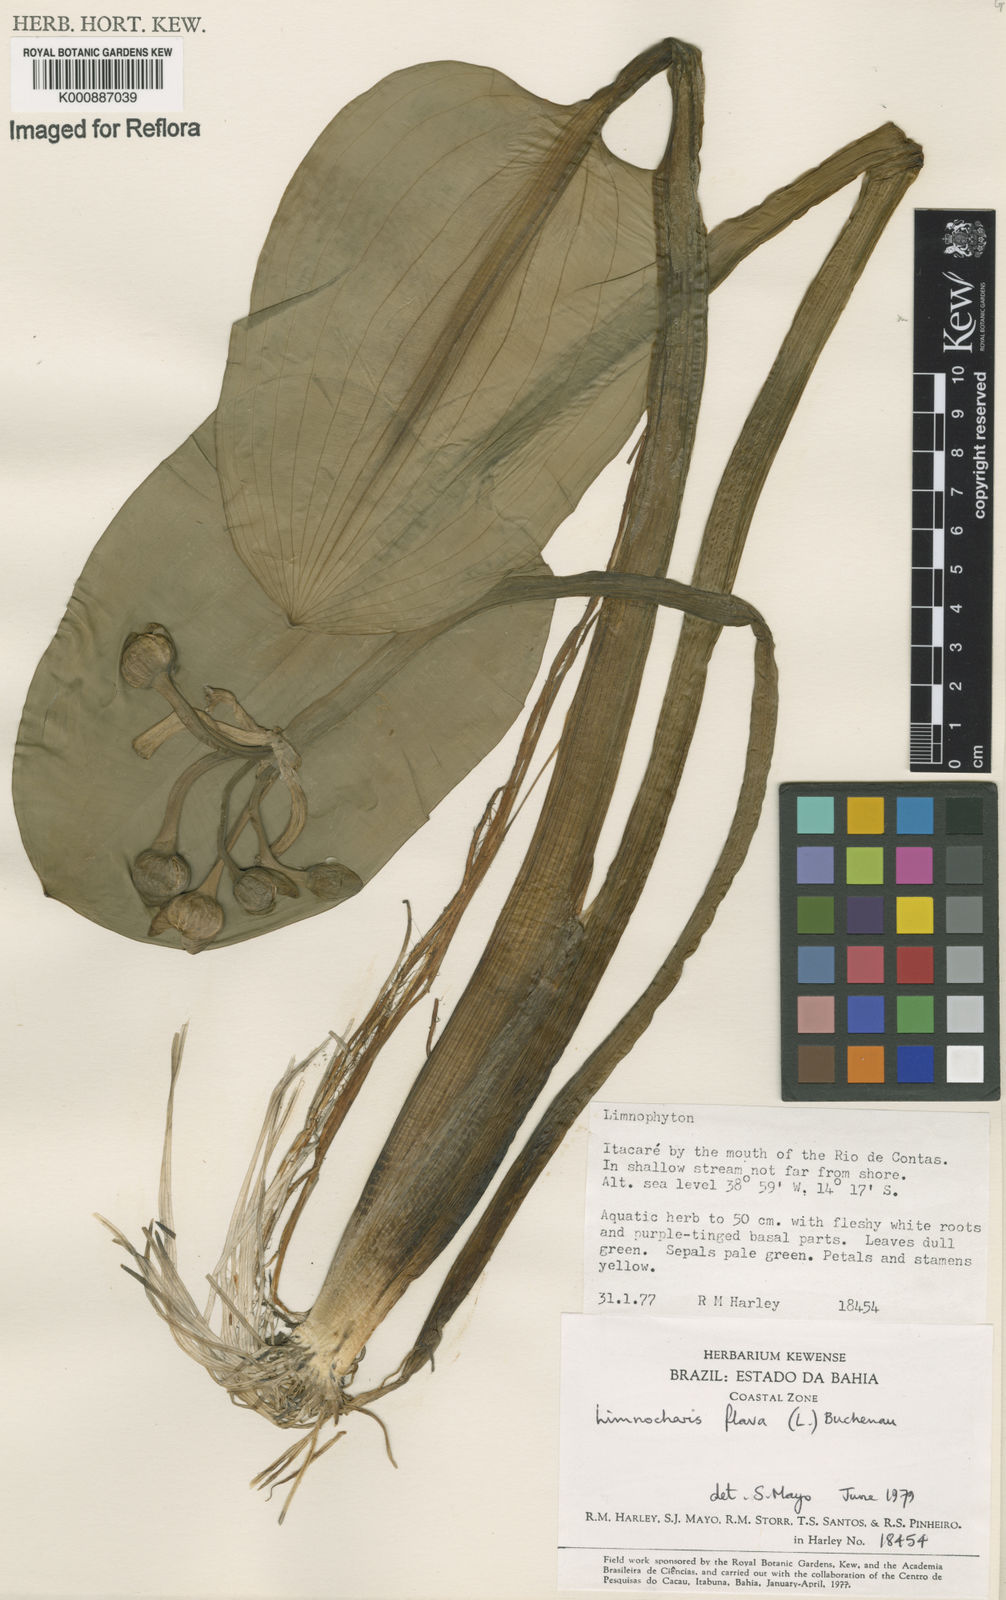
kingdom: Plantae
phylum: Tracheophyta
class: Liliopsida
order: Alismatales
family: Alismataceae
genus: Limnocharis
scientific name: Limnocharis flava
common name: Sawah-flower-rush
